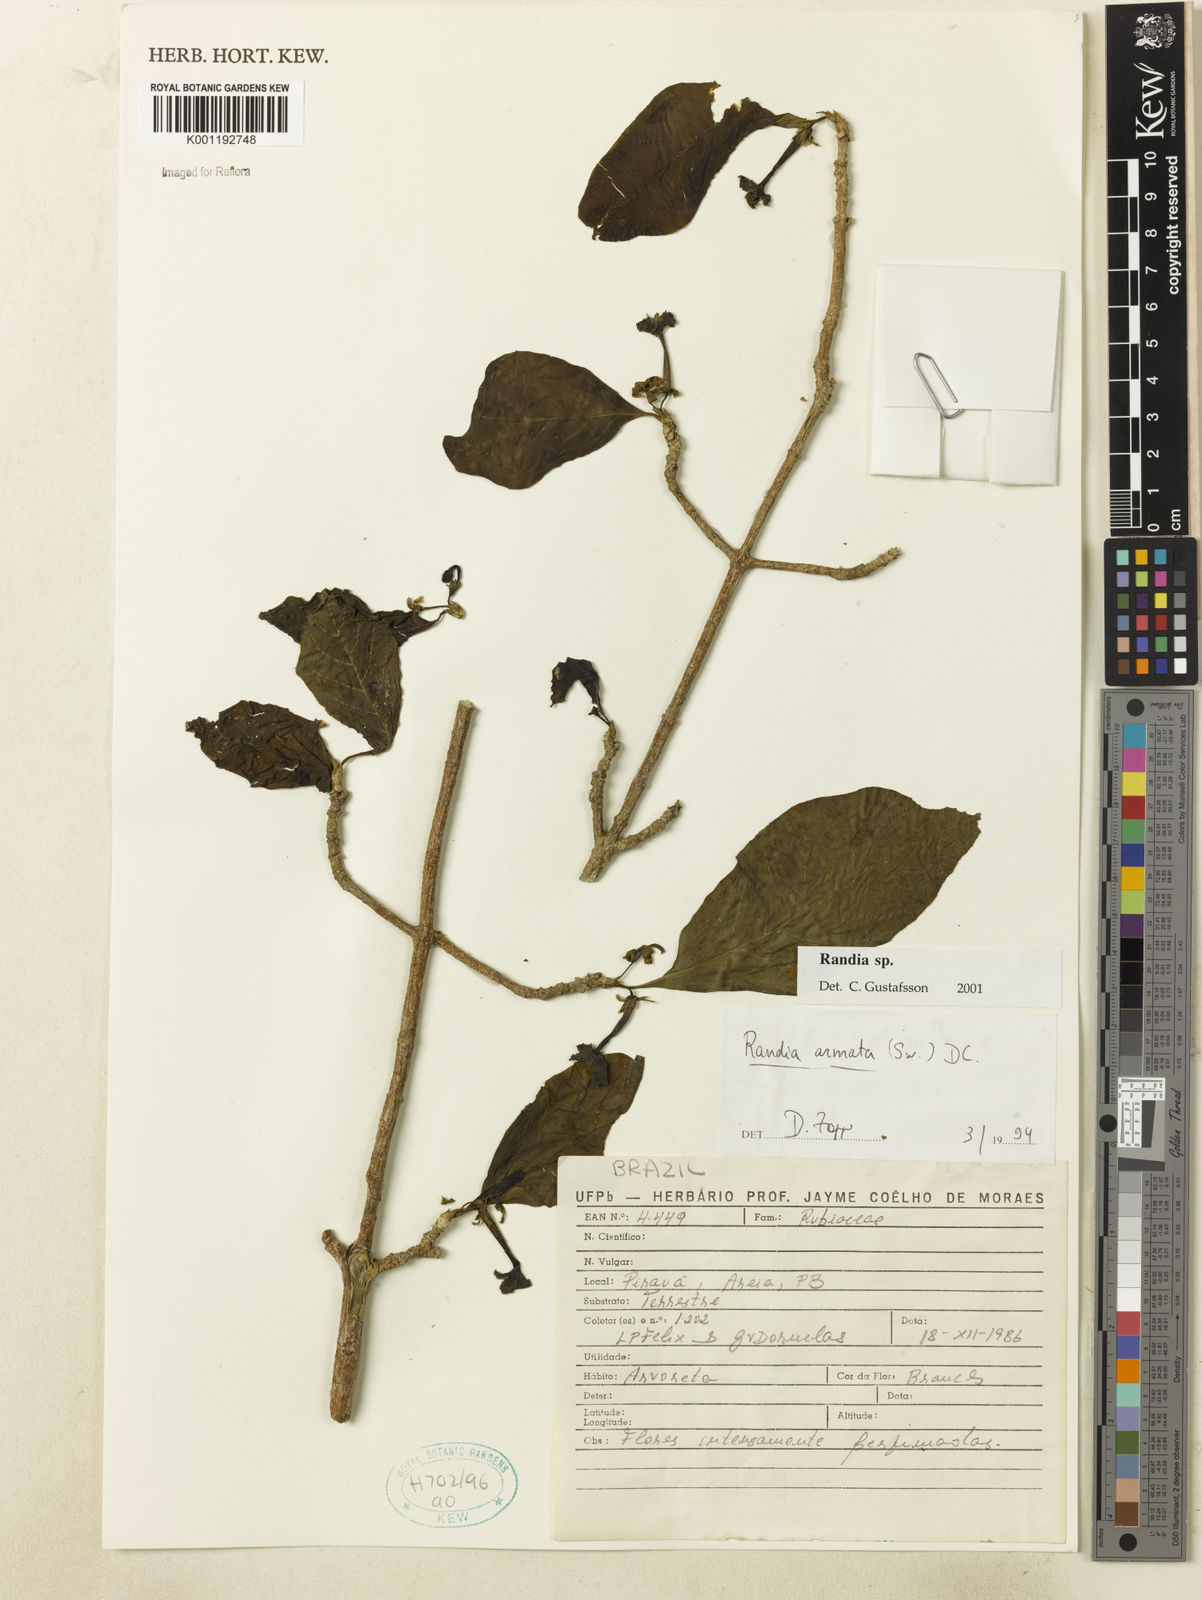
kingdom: Plantae
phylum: Tracheophyta
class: Magnoliopsida
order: Gentianales
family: Rubiaceae
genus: Randia
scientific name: Randia
